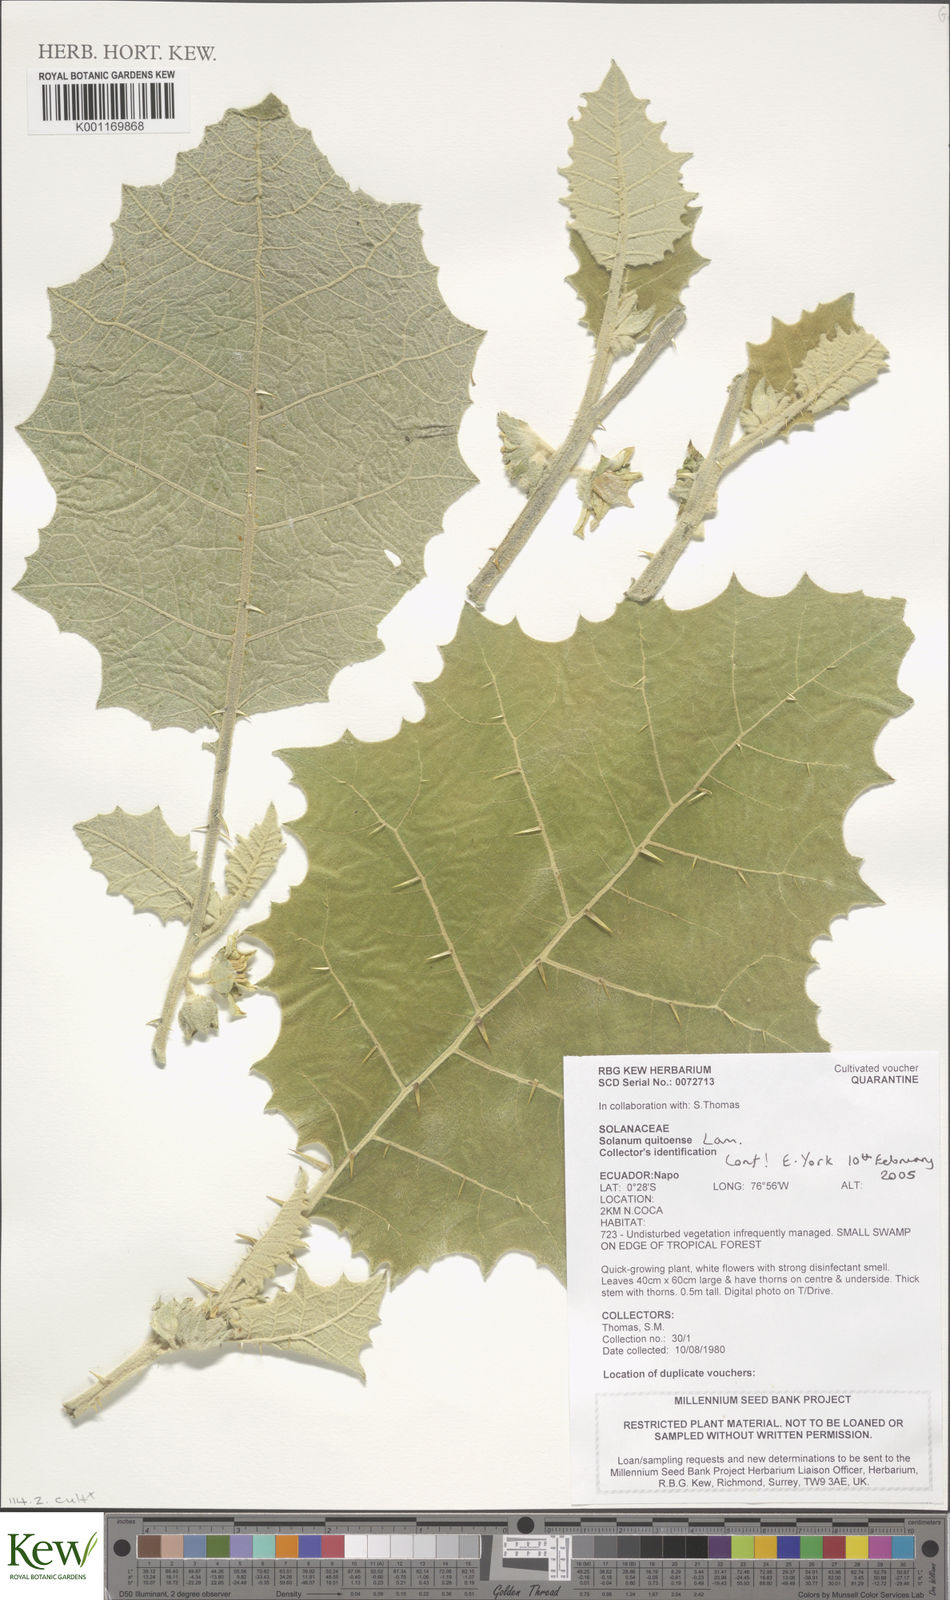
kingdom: Plantae
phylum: Tracheophyta
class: Magnoliopsida
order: Solanales
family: Solanaceae
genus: Solanum
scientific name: Solanum quitoense
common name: Quito-orange
